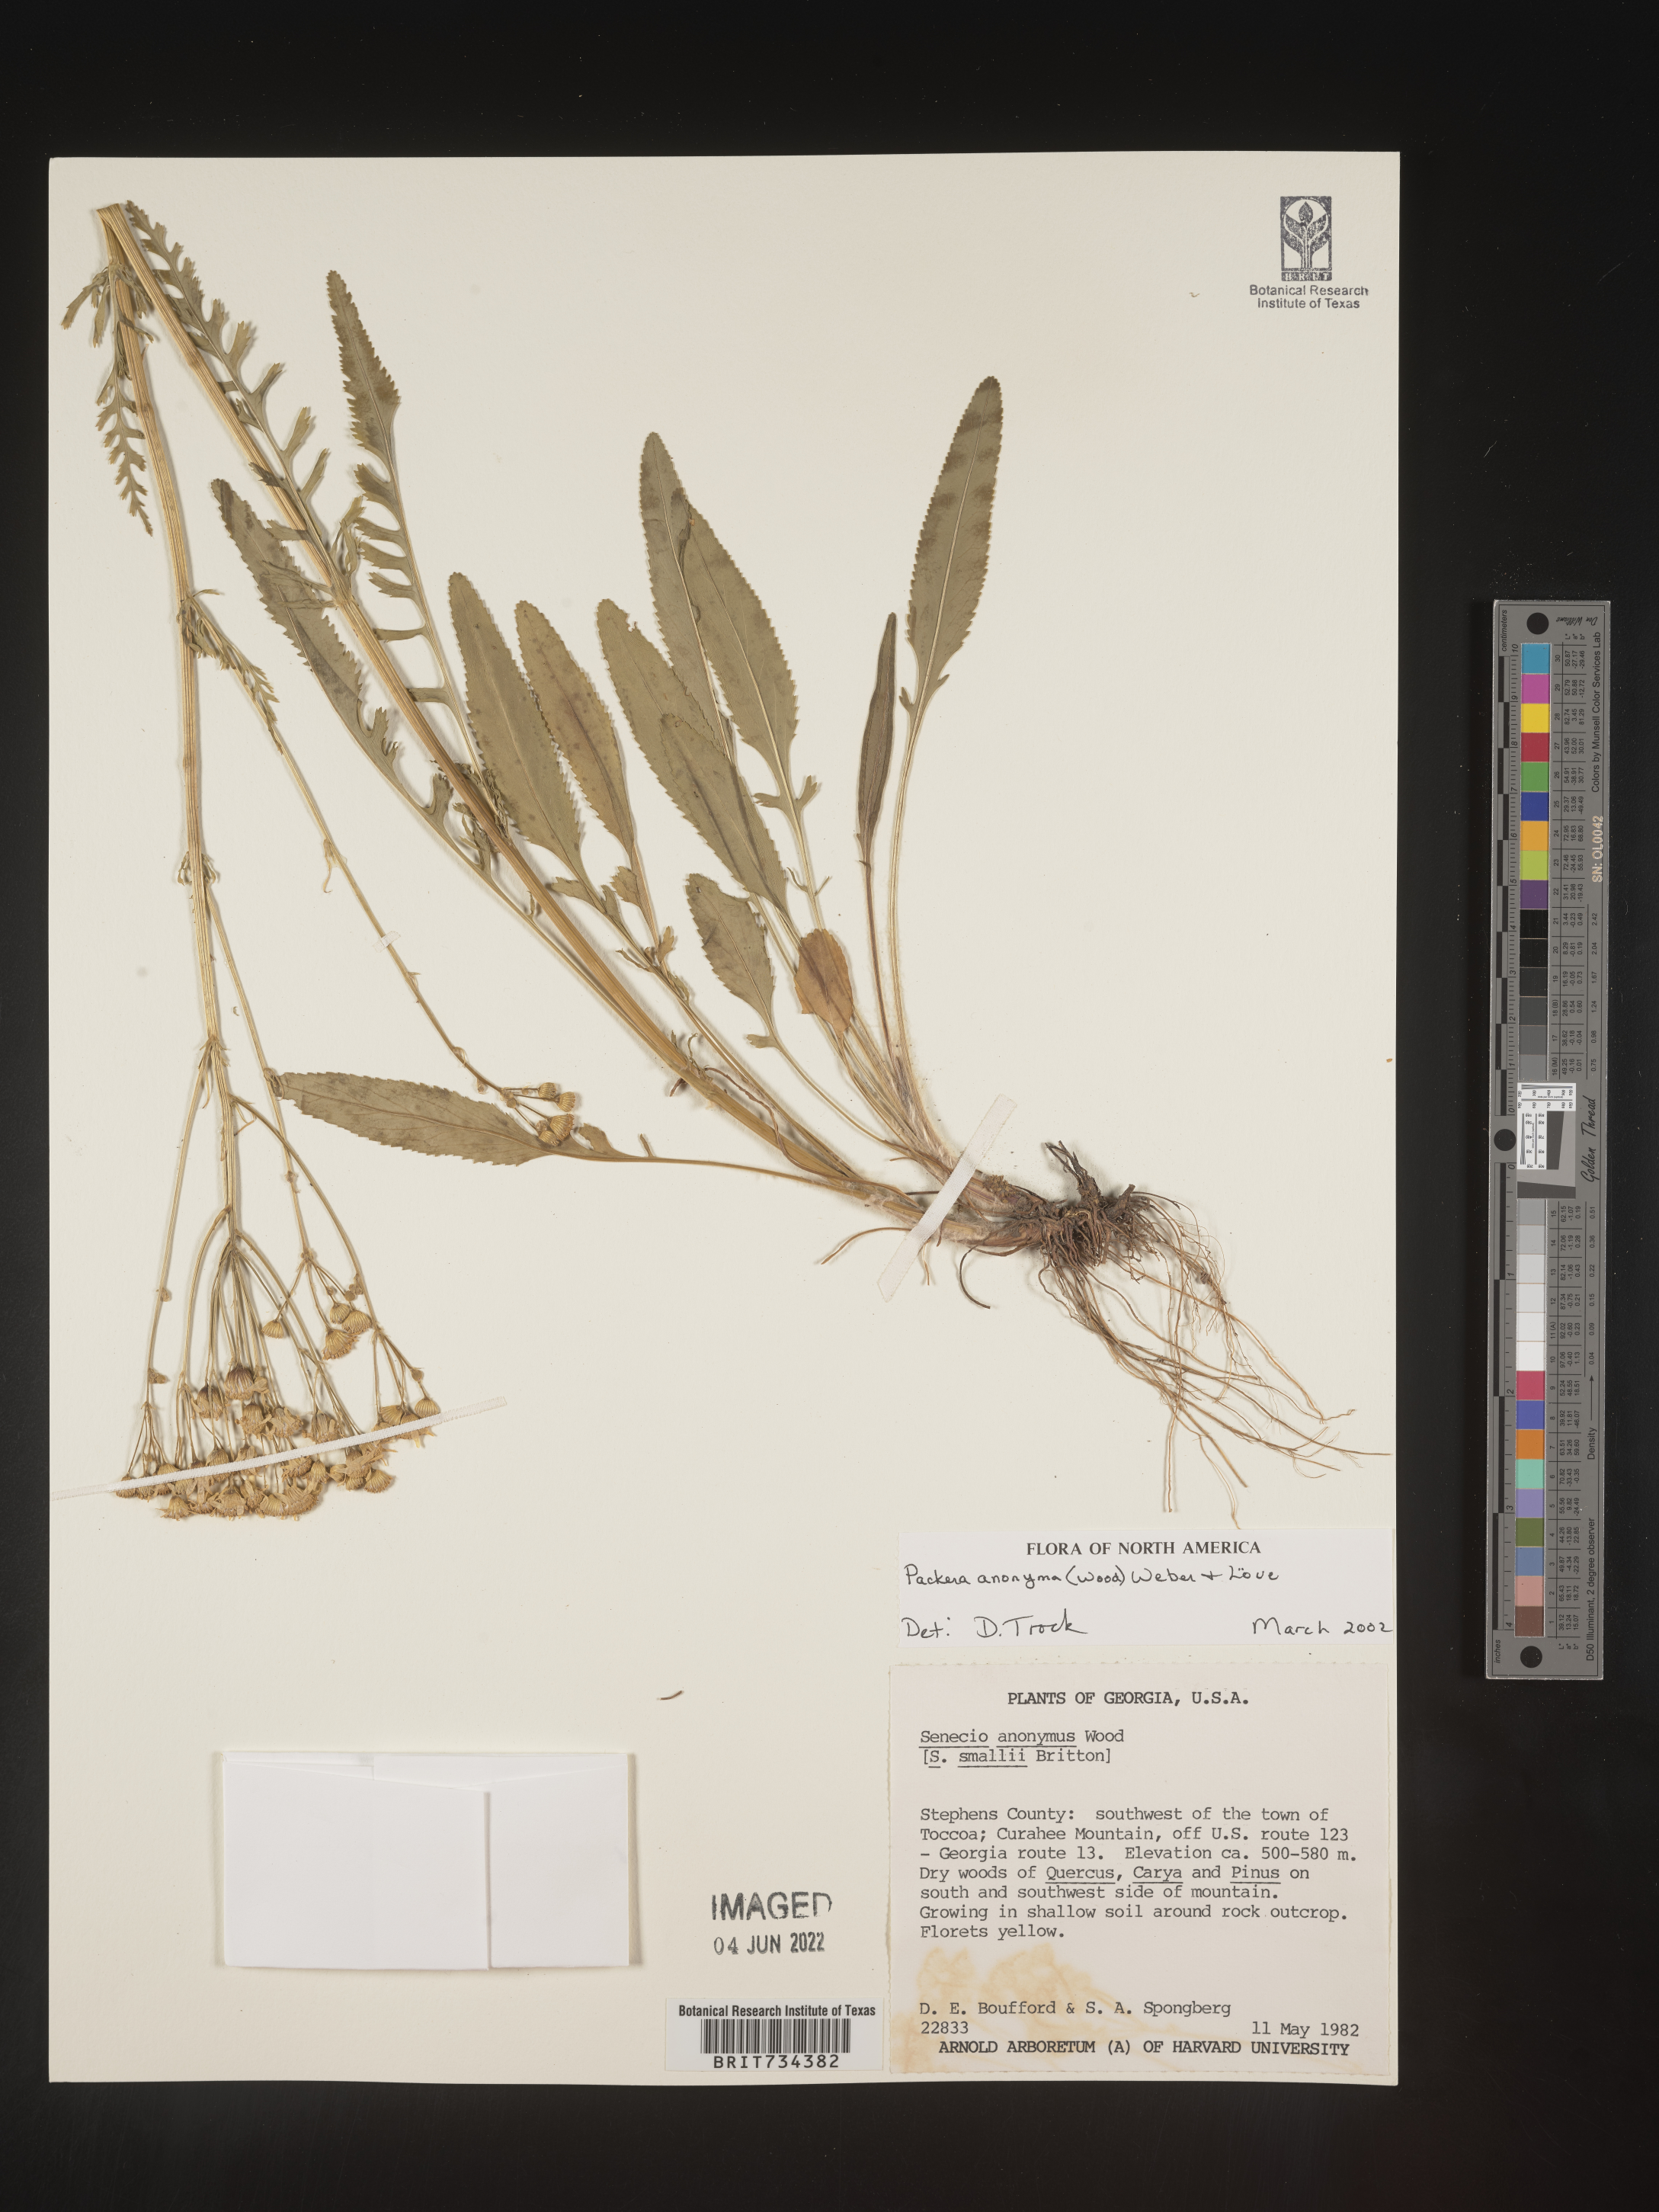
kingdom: Plantae
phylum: Tracheophyta
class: Magnoliopsida
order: Asterales
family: Asteraceae
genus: Packera
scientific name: Packera anonyma
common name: Small ragwort
